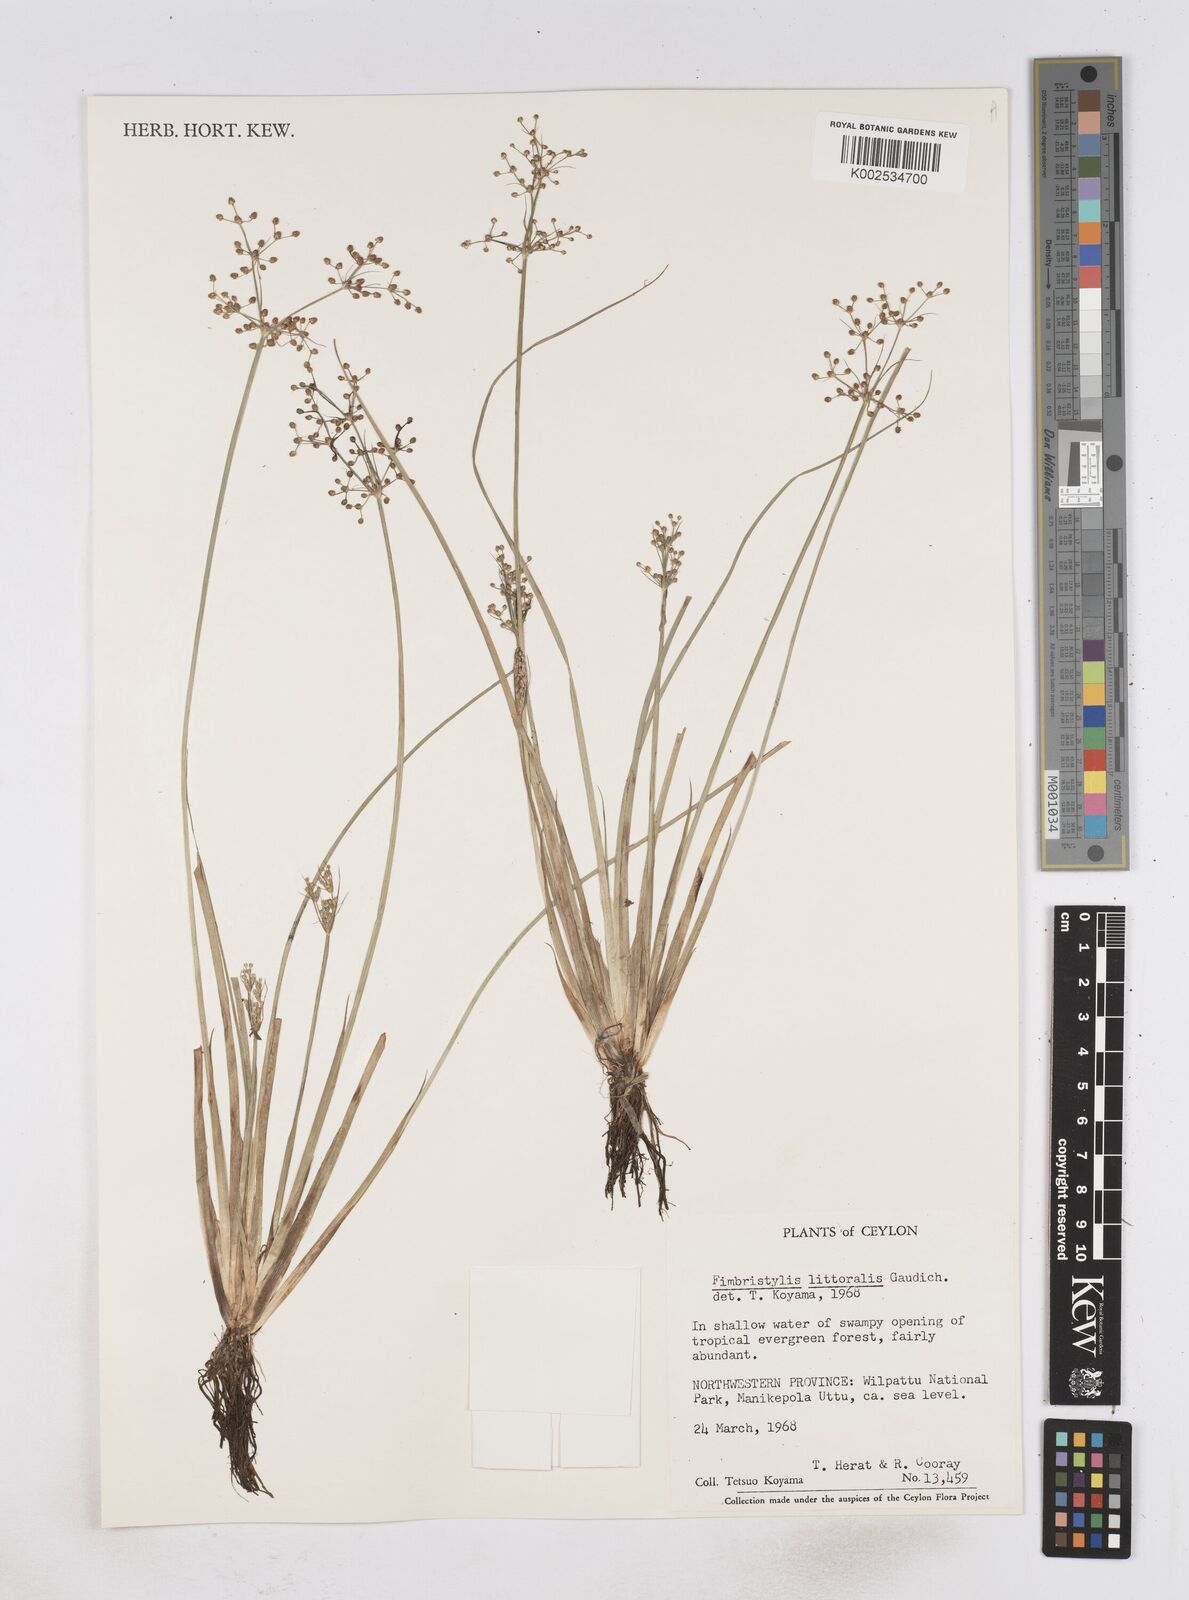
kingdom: Plantae
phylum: Tracheophyta
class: Liliopsida
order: Poales
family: Cyperaceae
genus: Fimbristylis
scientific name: Fimbristylis littoralis
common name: Fimbry
